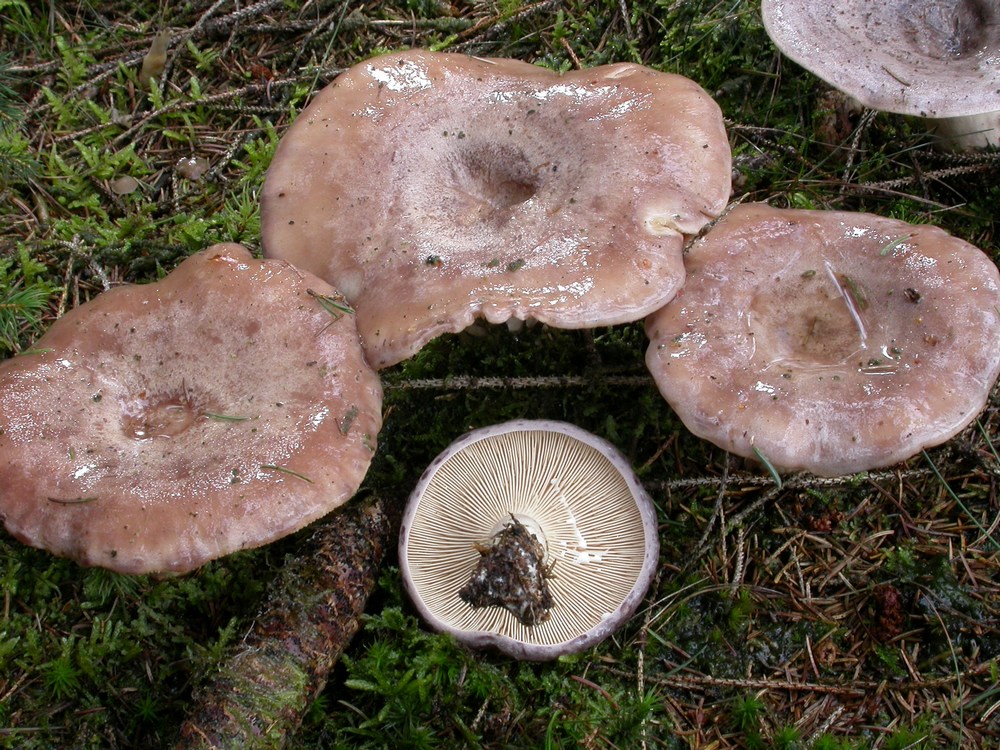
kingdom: Fungi
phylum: Basidiomycota
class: Agaricomycetes
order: Russulales
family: Russulaceae
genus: Lactarius
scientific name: Lactarius trivialis
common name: nordisk mælkehat
